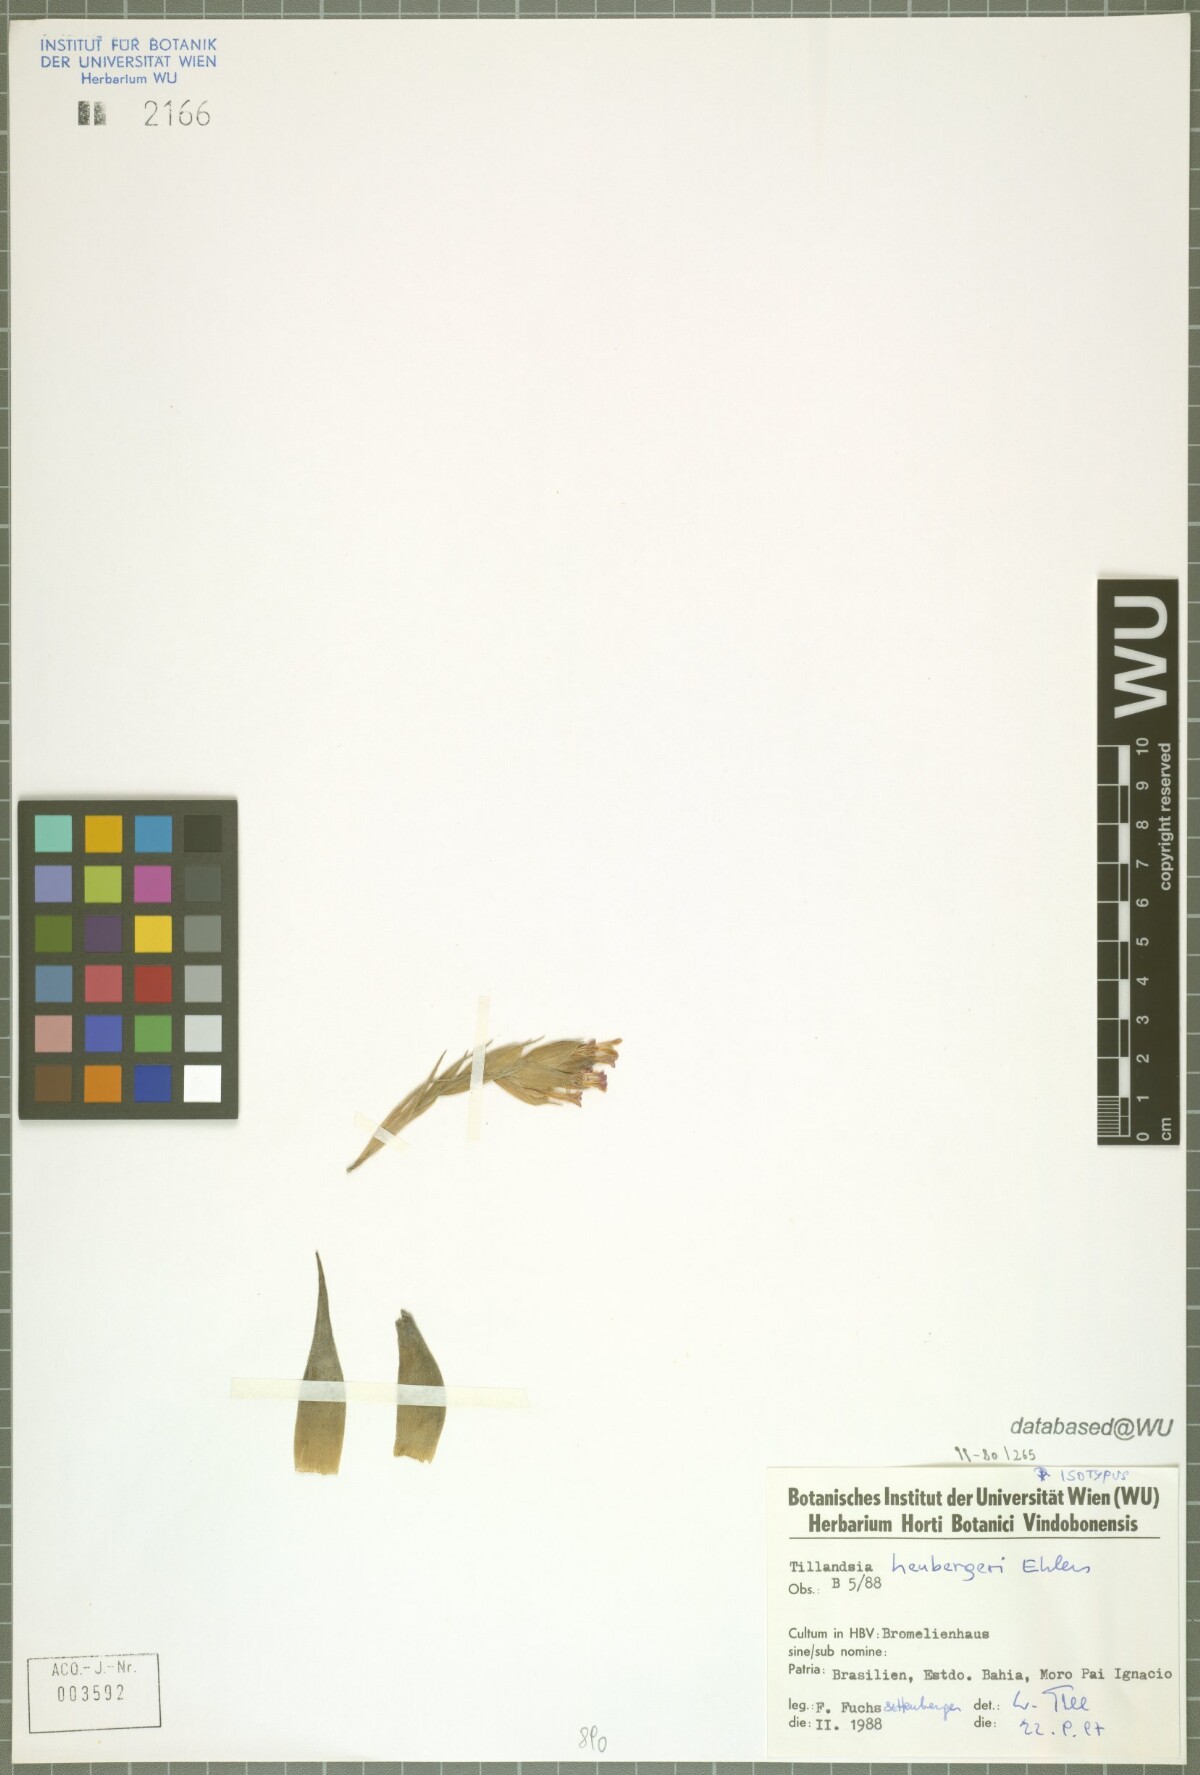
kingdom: Plantae
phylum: Tracheophyta
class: Liliopsida
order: Poales
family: Bromeliaceae
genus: Tillandsia
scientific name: Tillandsia heubergeri
